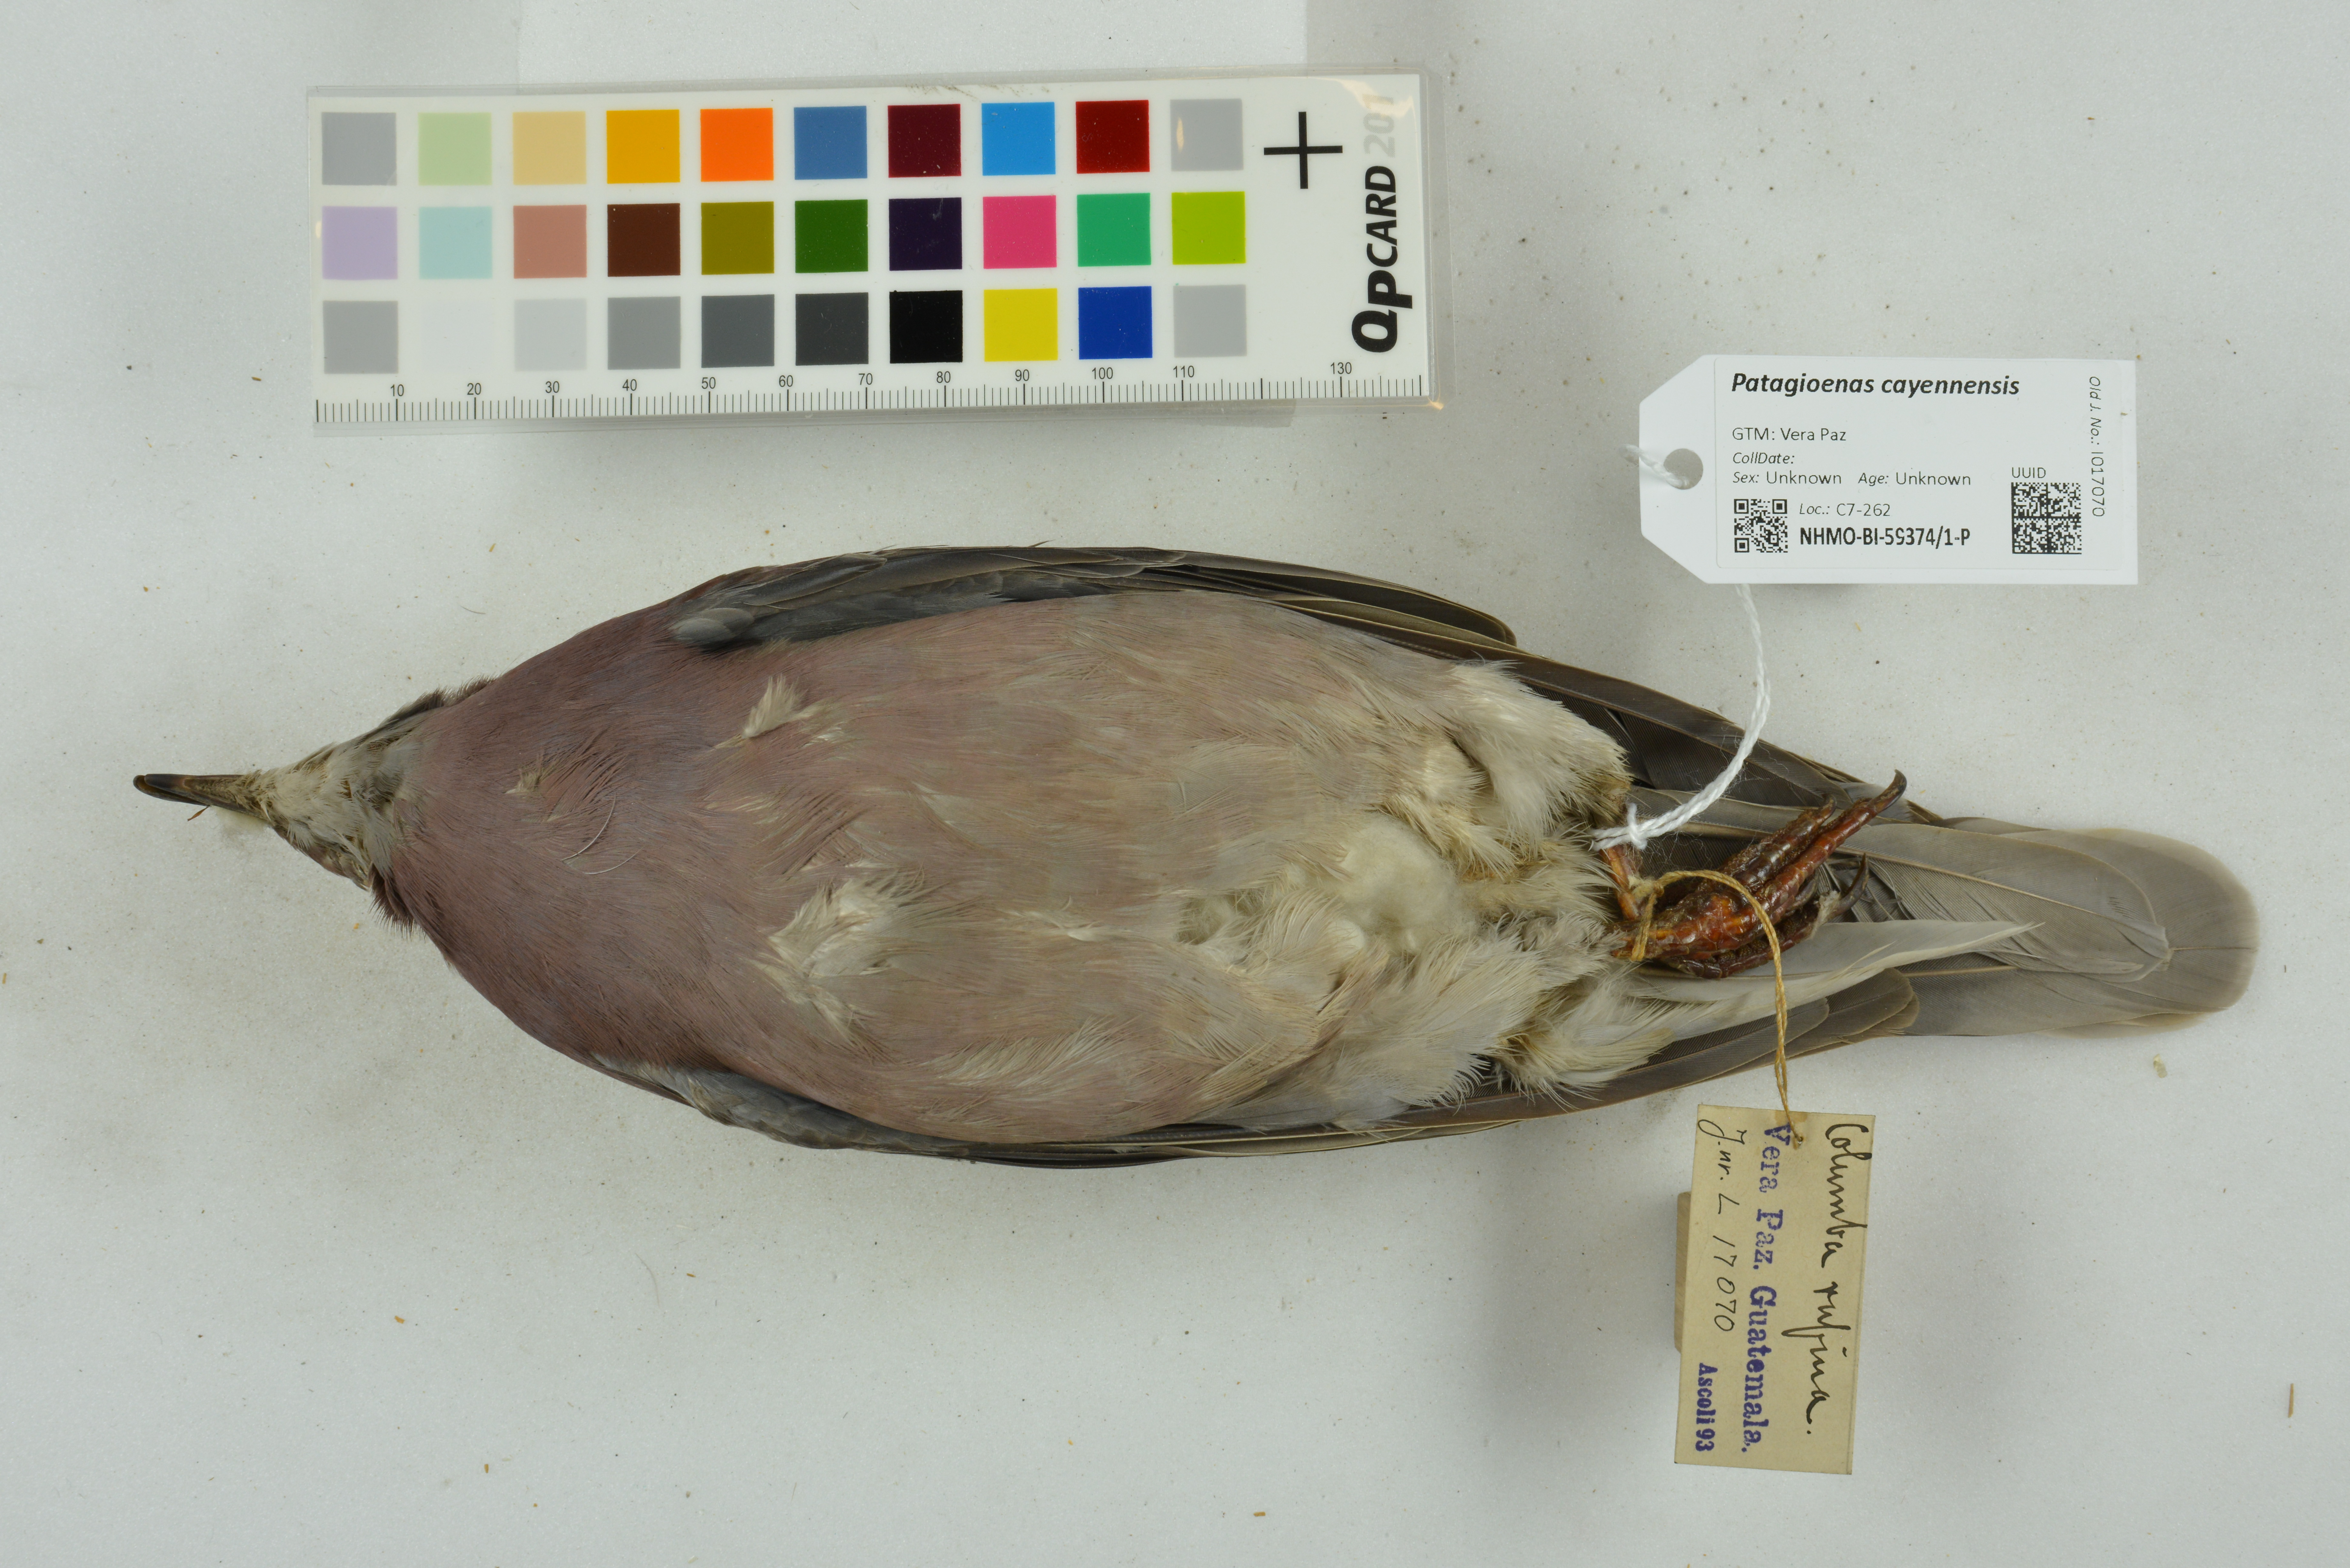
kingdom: Animalia
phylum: Chordata
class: Aves
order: Columbiformes
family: Columbidae
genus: Patagioenas
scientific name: Patagioenas cayennensis
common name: Pale-vented pigeon
